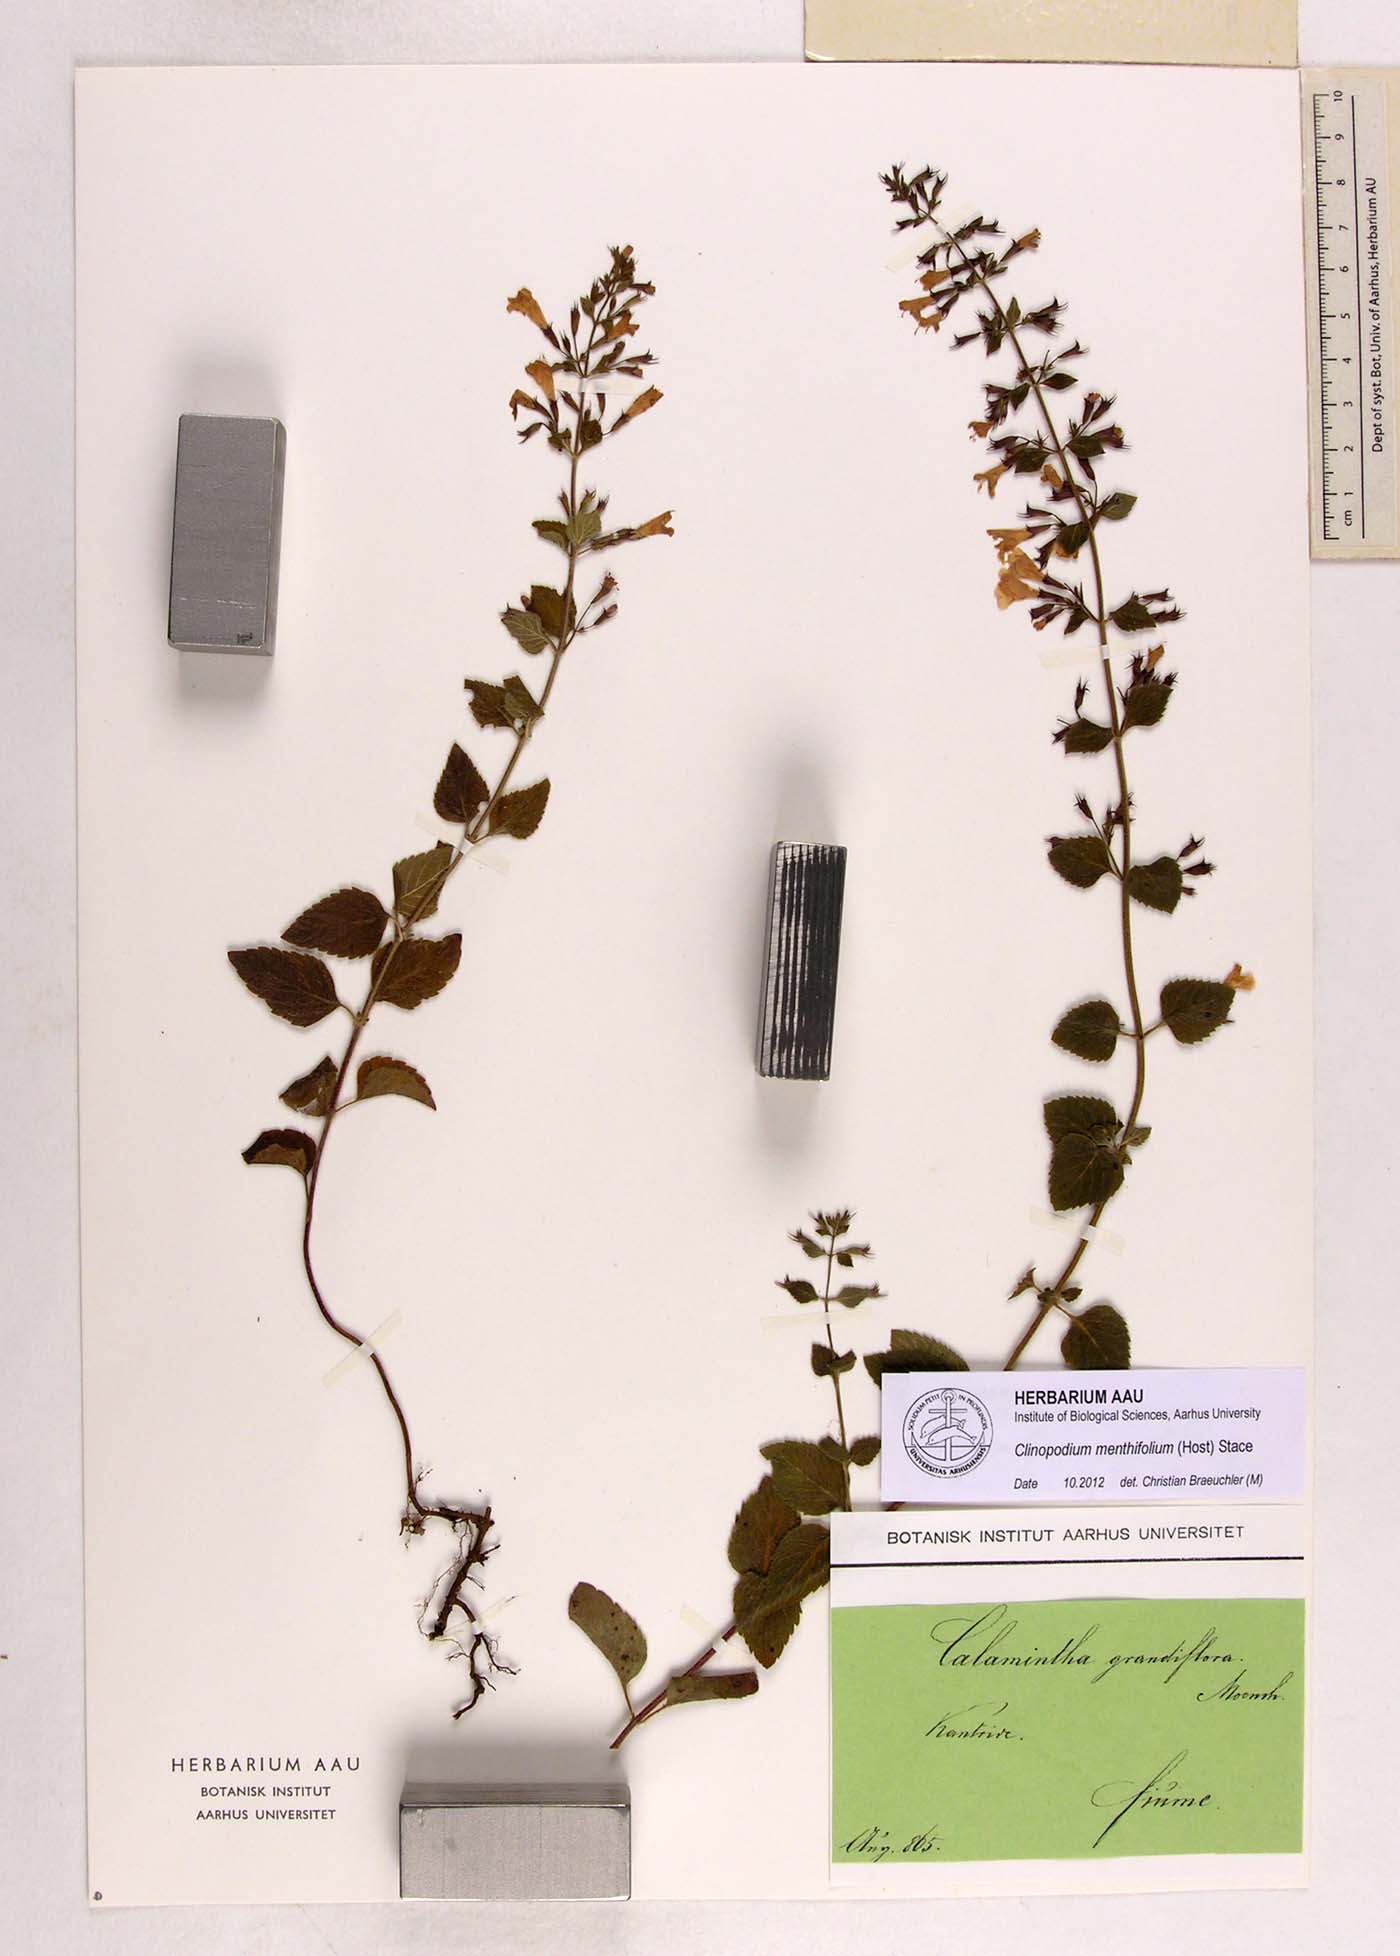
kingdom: Plantae
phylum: Tracheophyta
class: Magnoliopsida
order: Lamiales
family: Lamiaceae
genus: Clinopodium
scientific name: Clinopodium menthifolium
